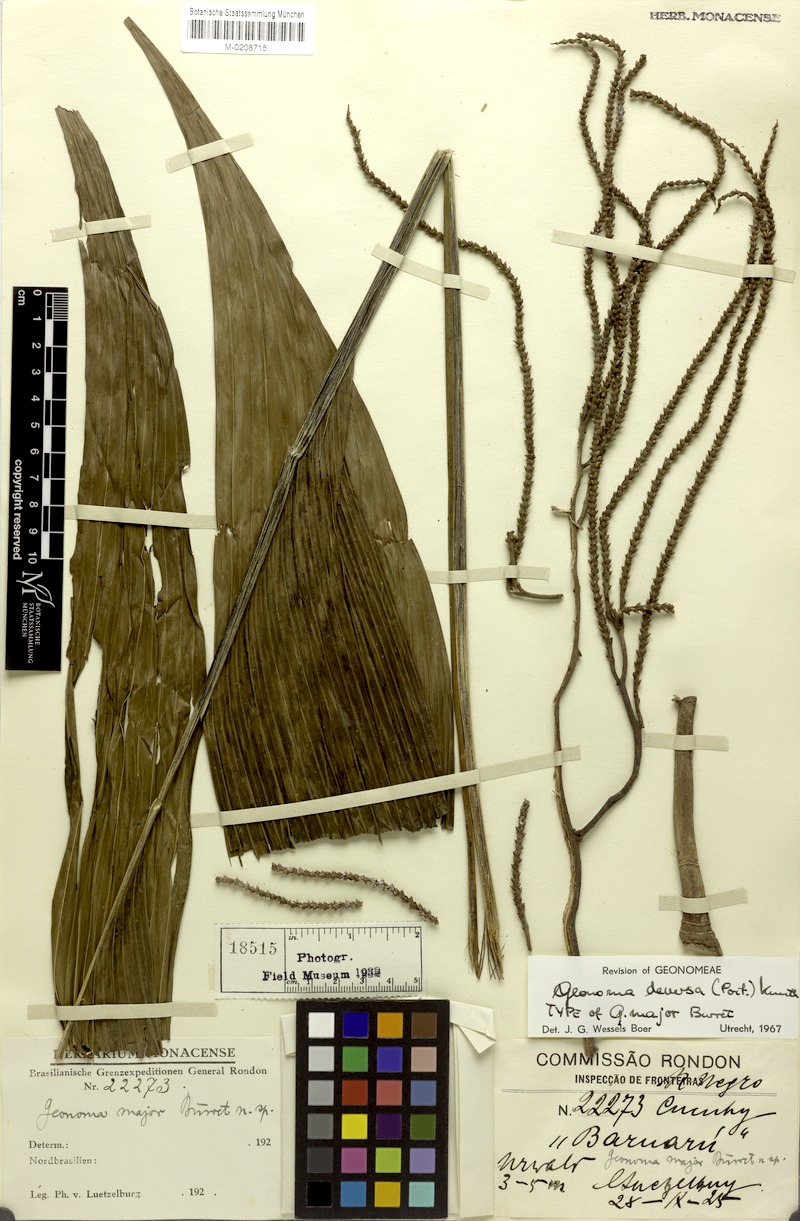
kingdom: Plantae
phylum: Tracheophyta
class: Liliopsida
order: Arecales
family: Arecaceae
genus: Geonoma
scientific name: Geonoma deversa
